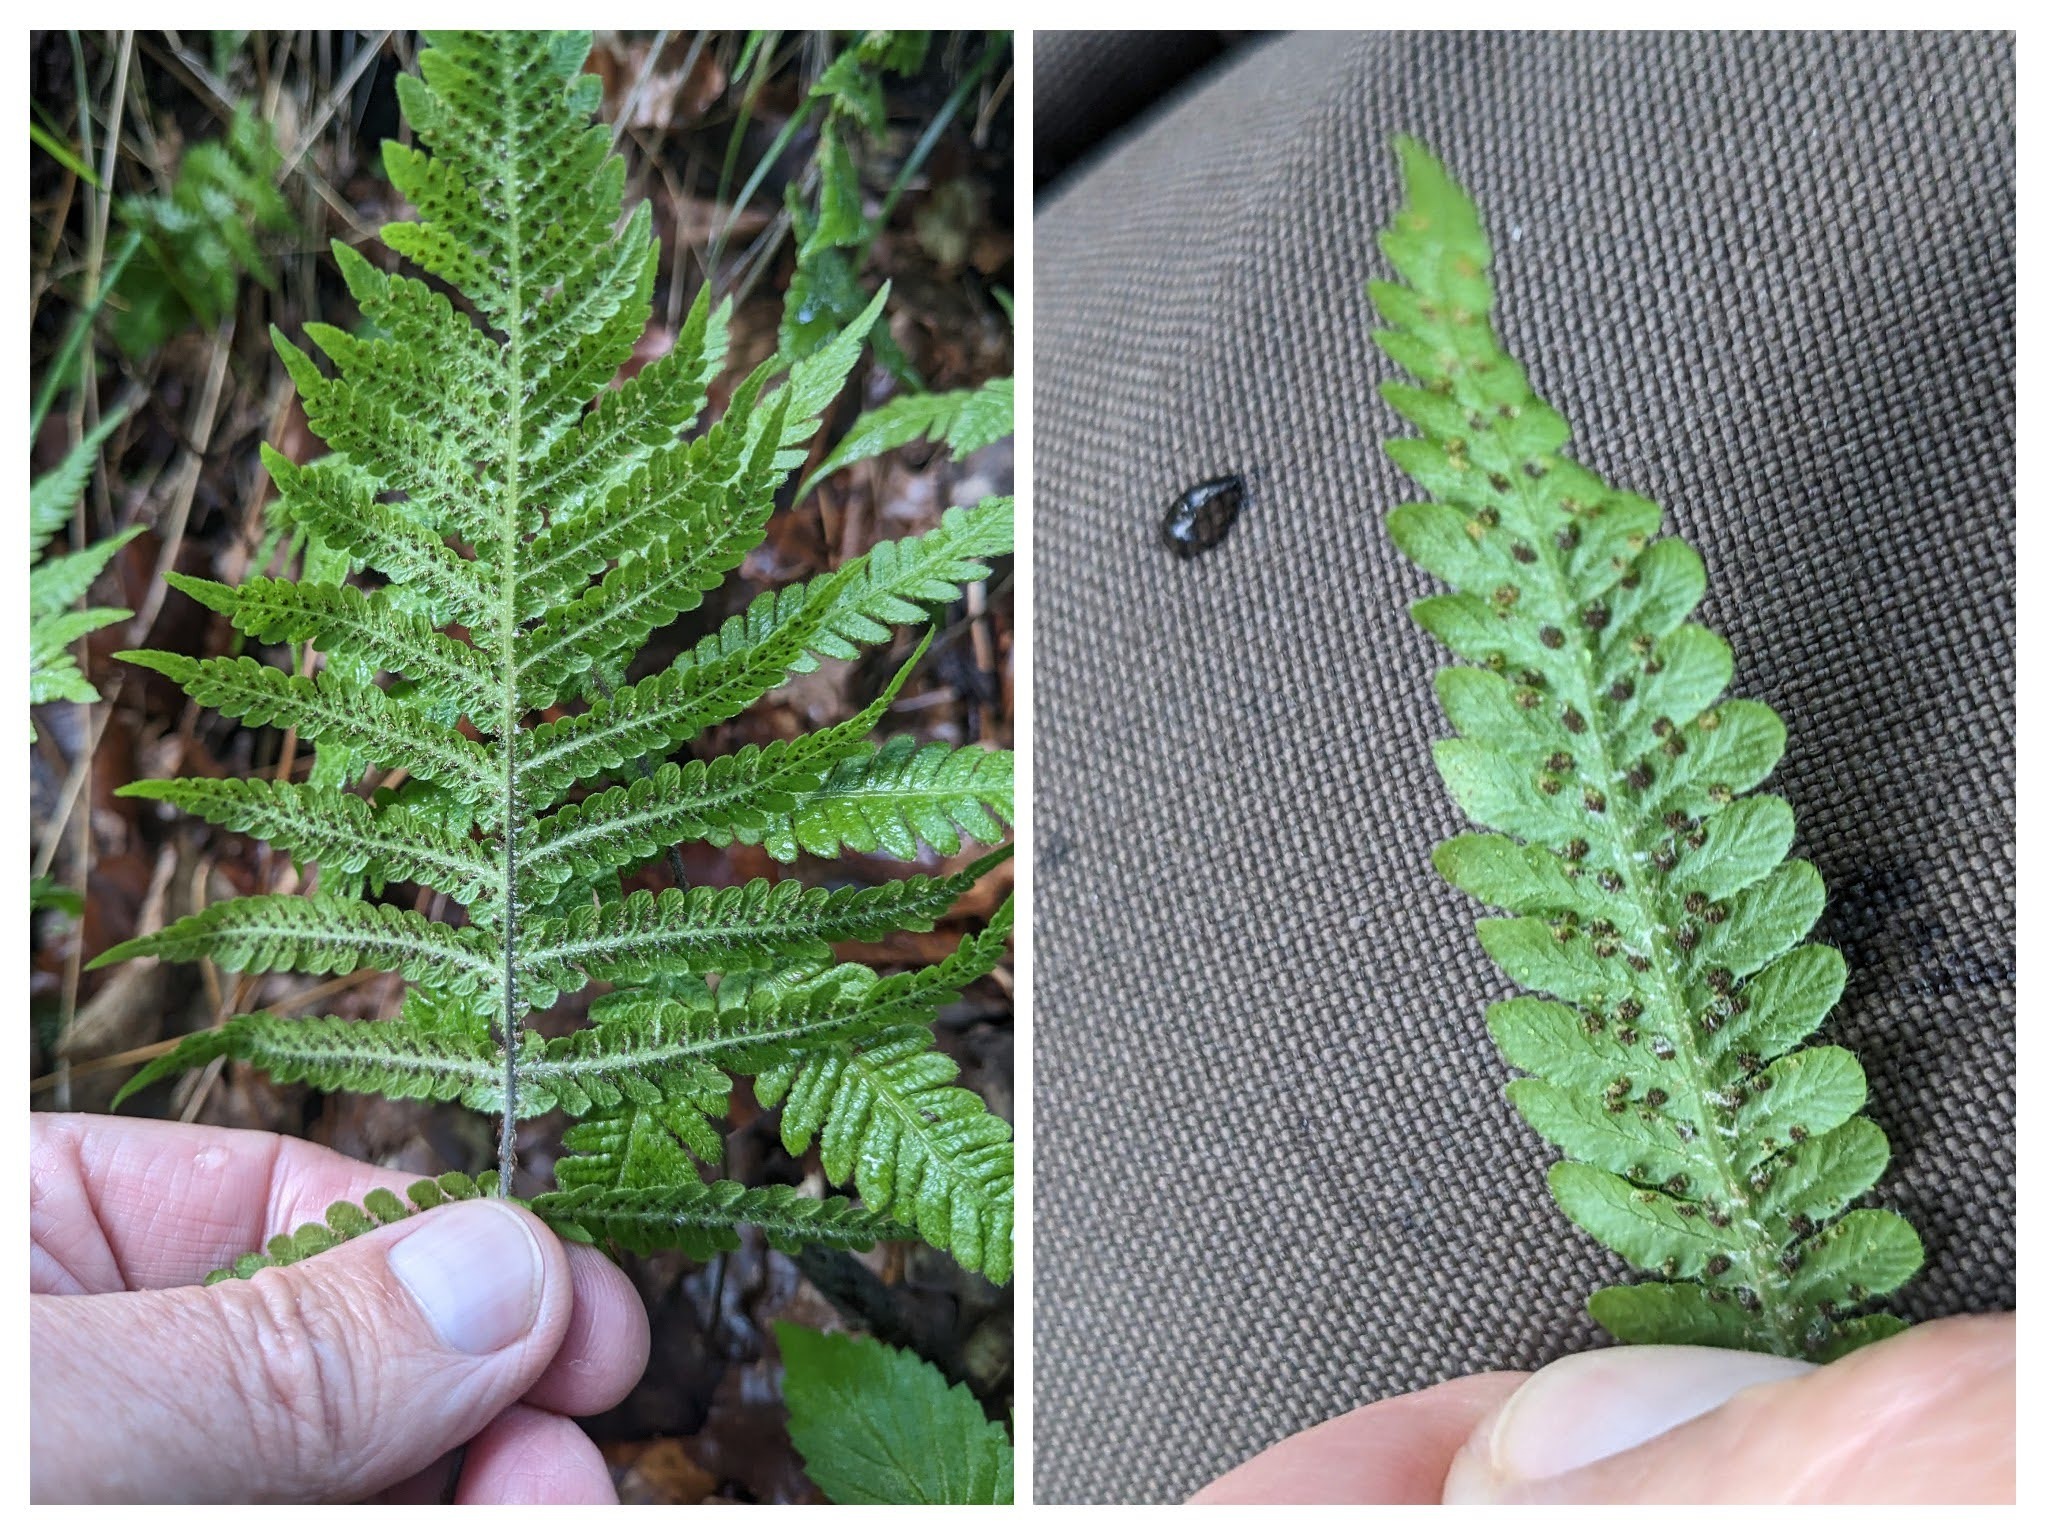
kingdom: Plantae
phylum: Tracheophyta
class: Polypodiopsida
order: Polypodiales
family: Thelypteridaceae
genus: Phegopteris
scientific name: Phegopteris connectilis
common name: Dunet egebregne
